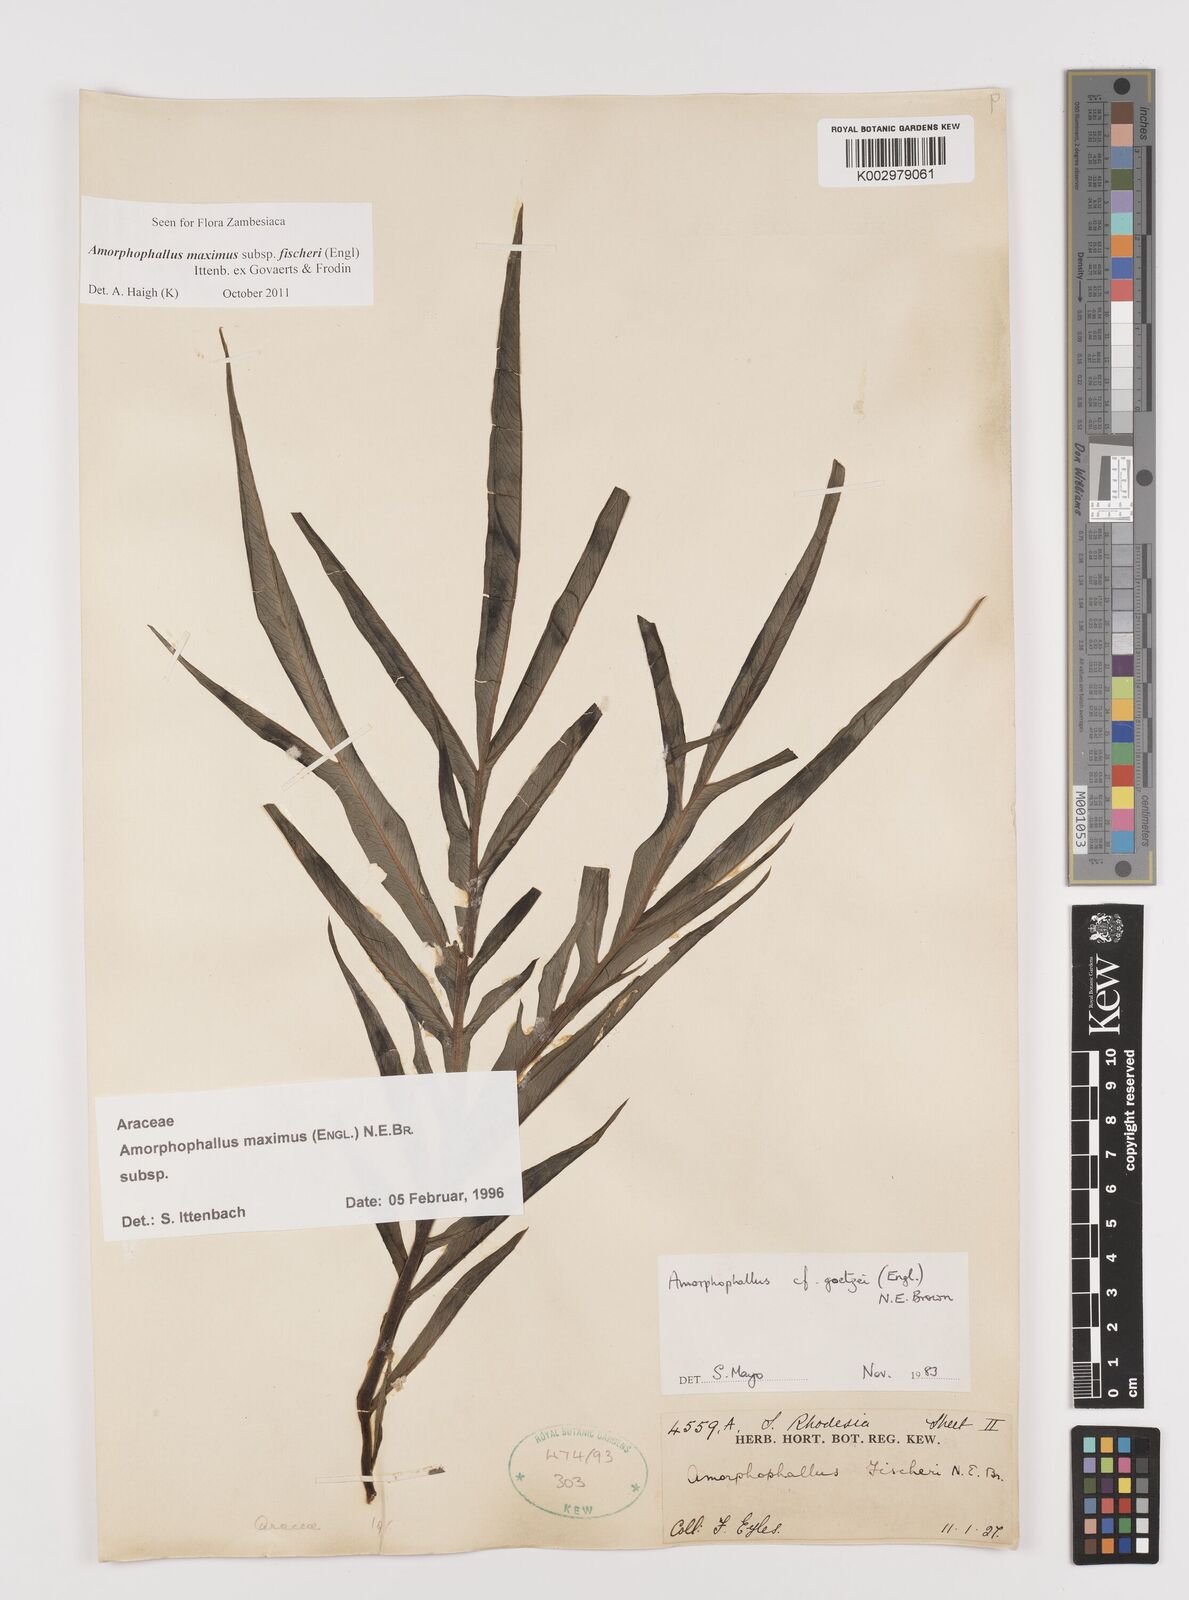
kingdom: Plantae
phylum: Tracheophyta
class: Liliopsida
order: Alismatales
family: Araceae
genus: Amorphophallus
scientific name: Amorphophallus maximus
